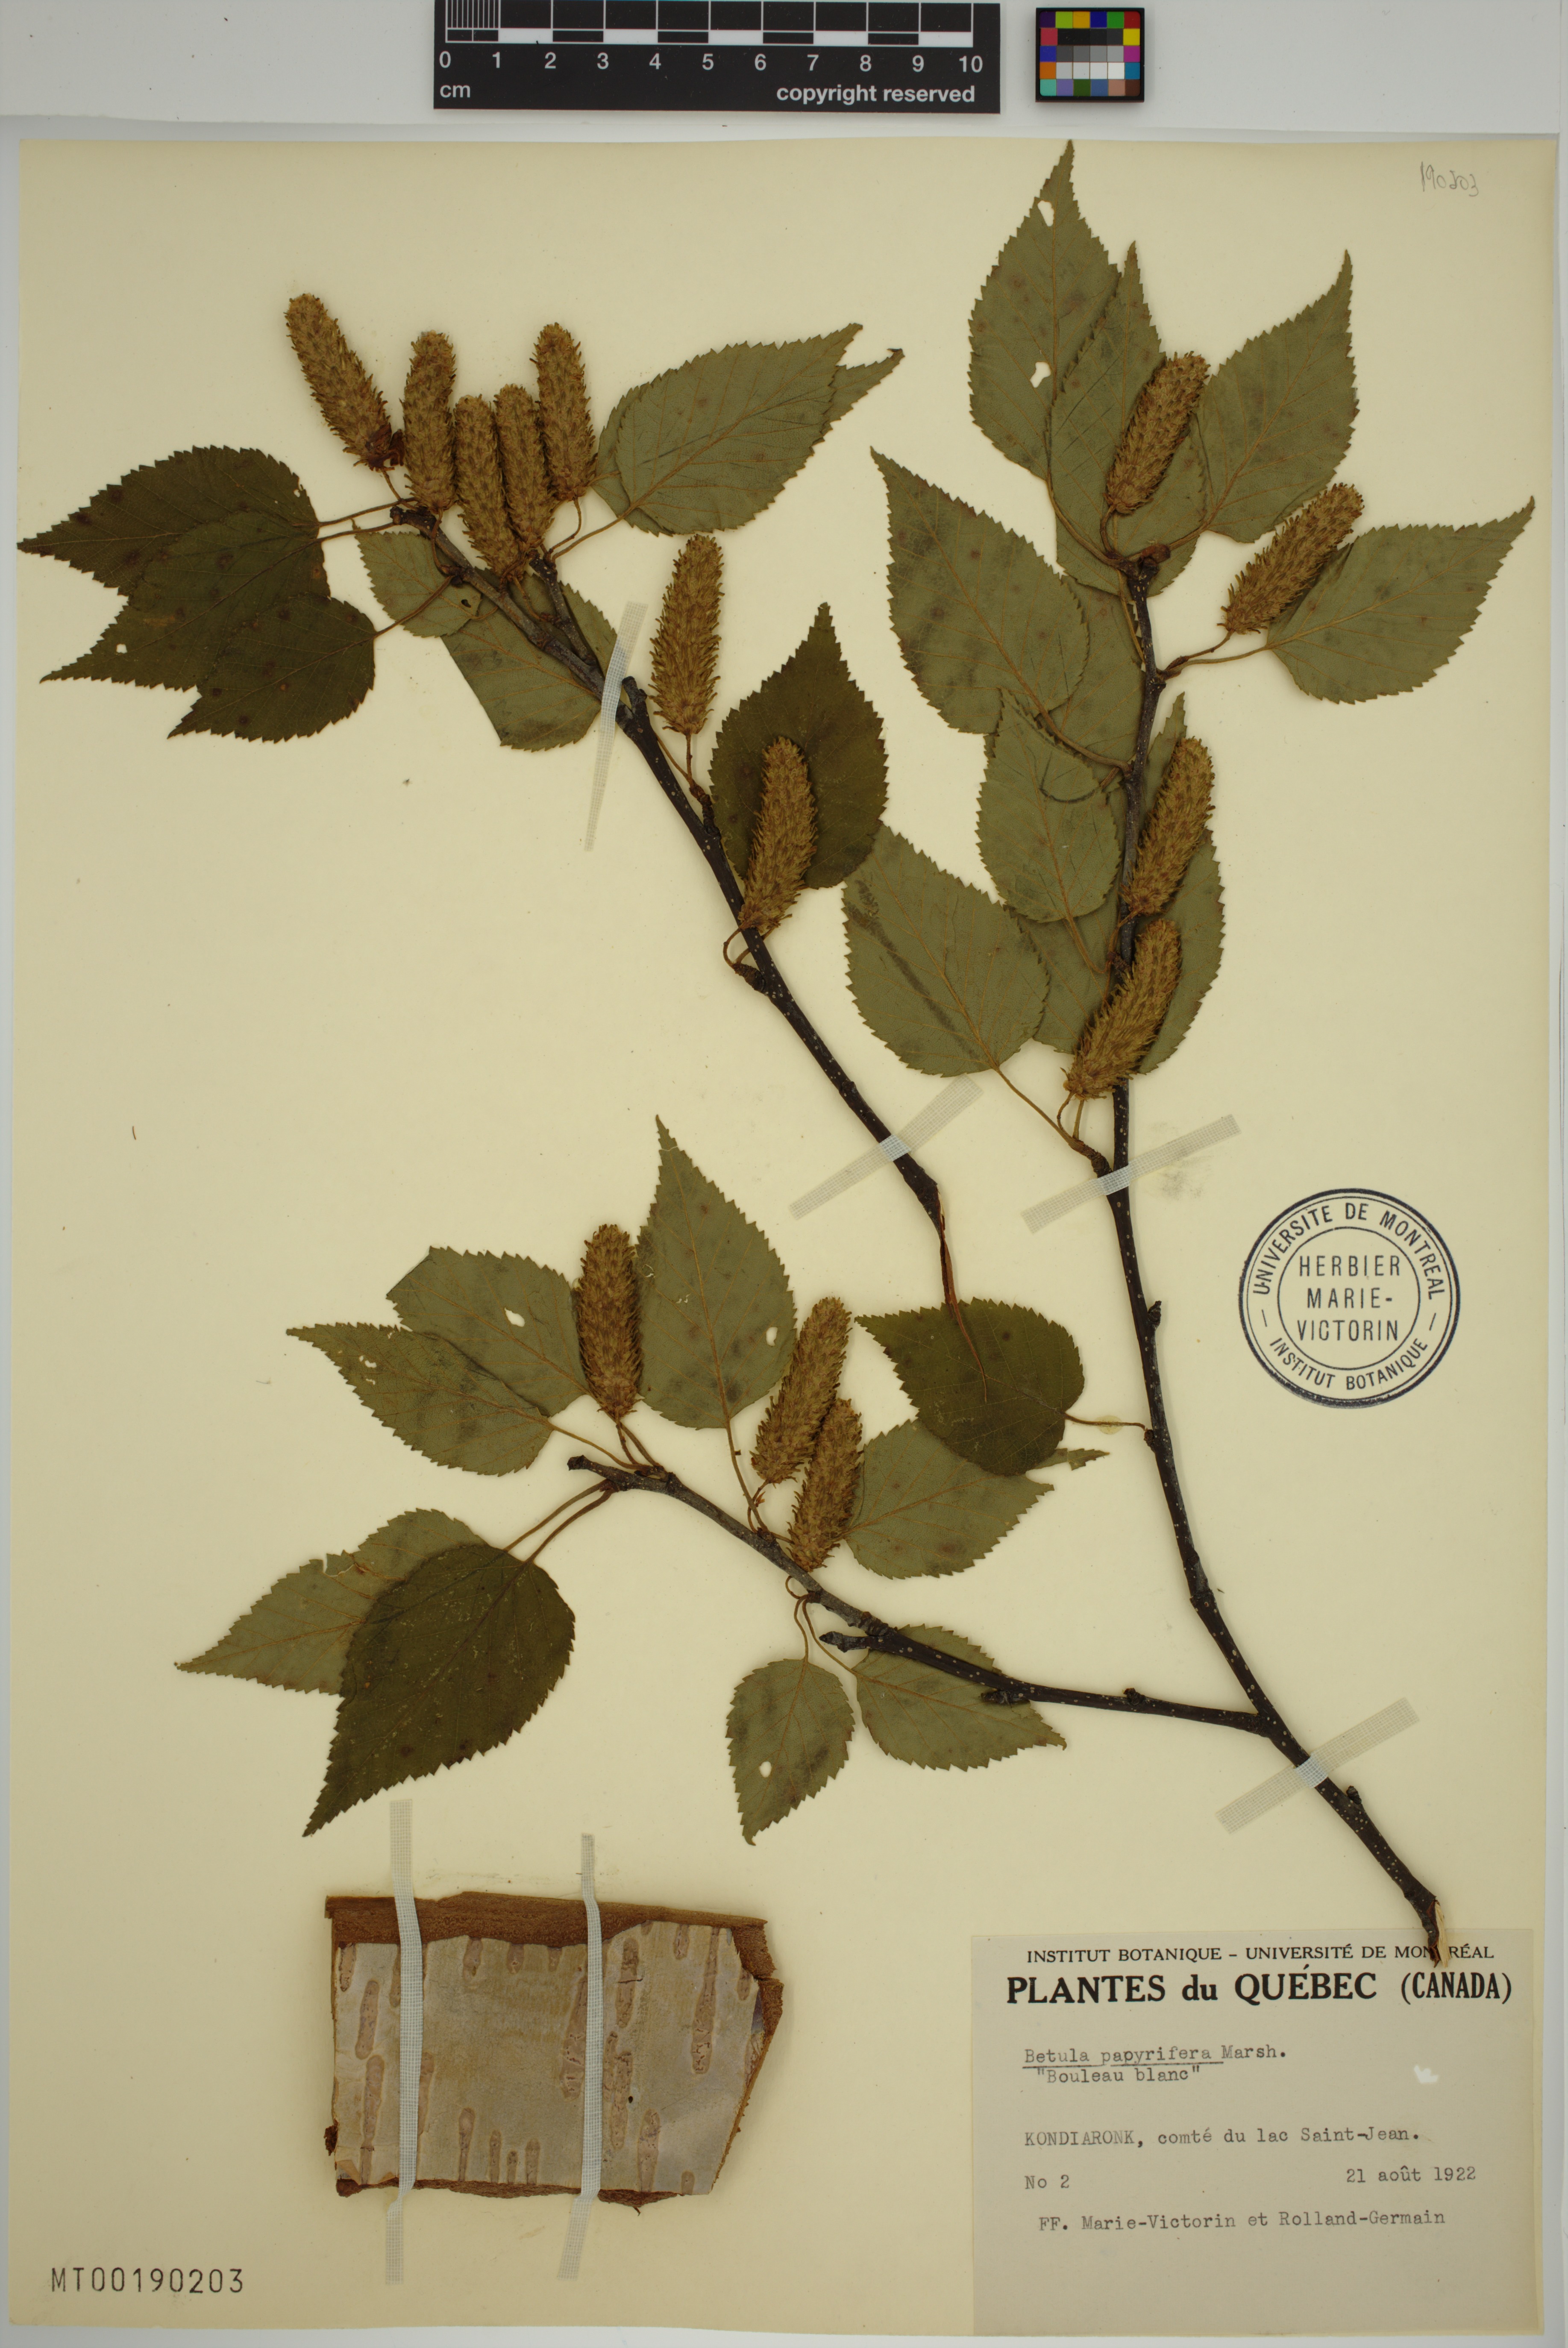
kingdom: Plantae
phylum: Tracheophyta
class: Magnoliopsida
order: Fagales
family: Betulaceae
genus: Betula
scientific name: Betula papyrifera
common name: Paper birch
